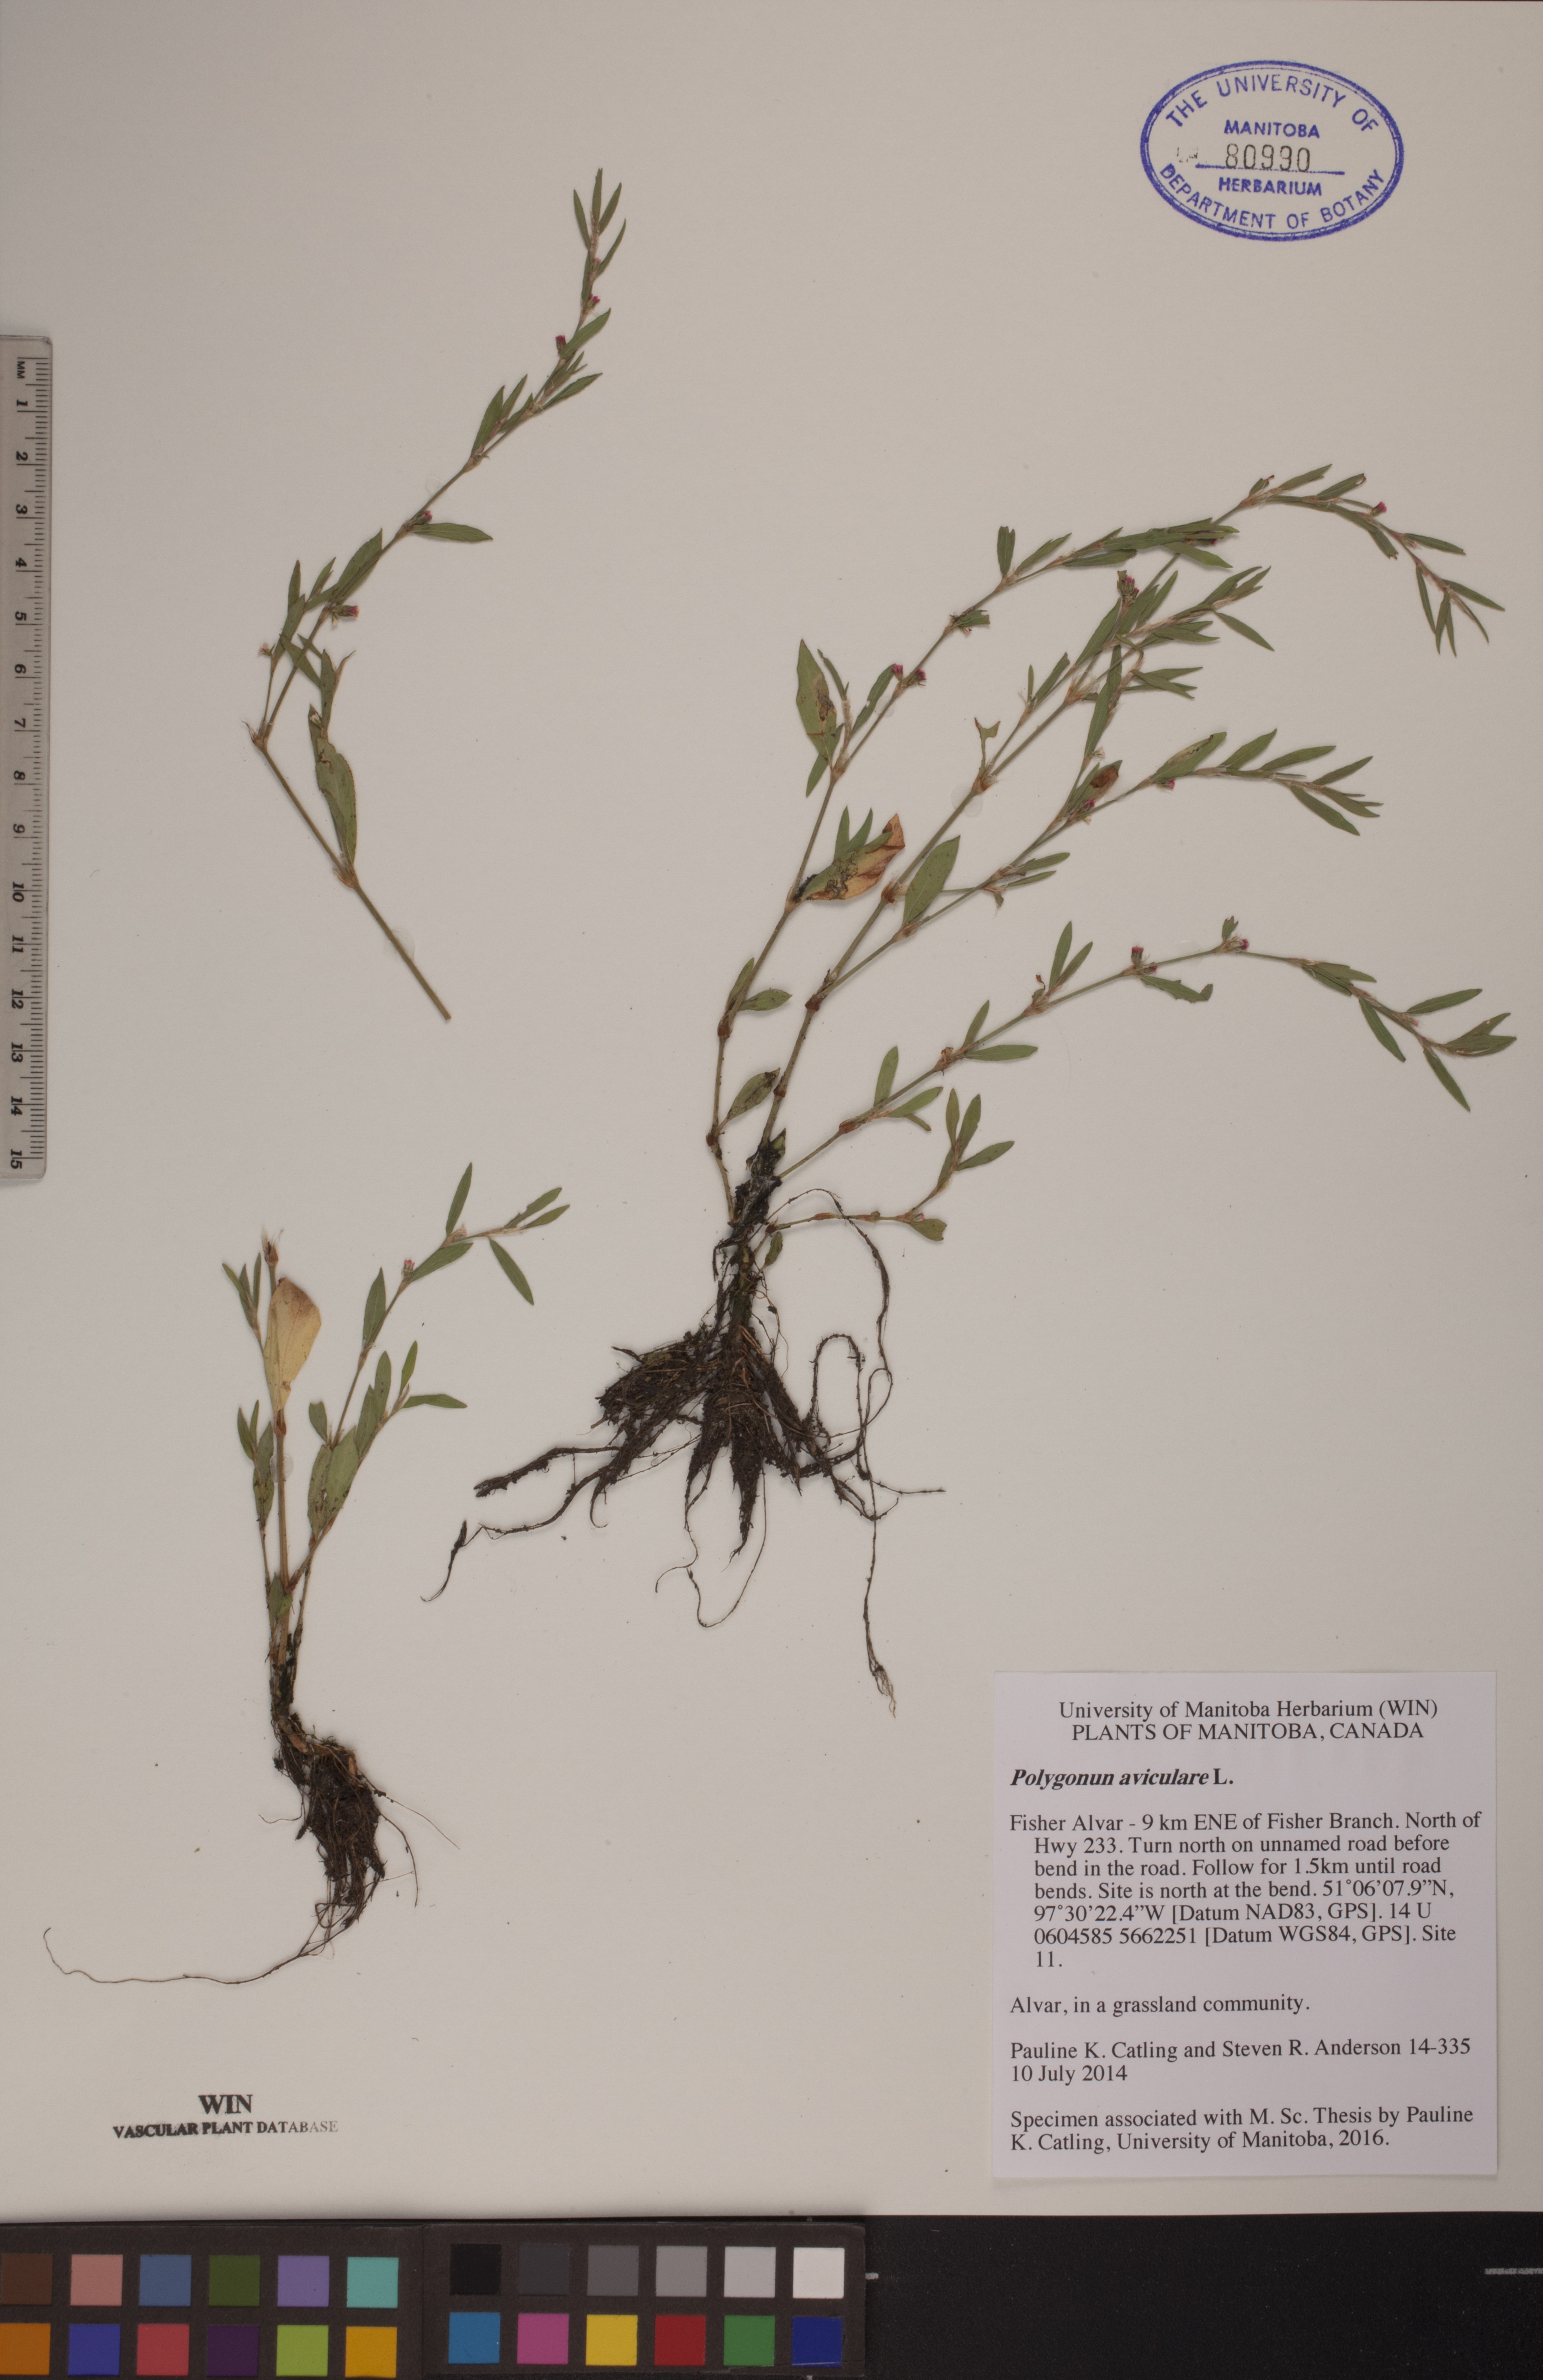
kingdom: Plantae
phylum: Tracheophyta
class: Magnoliopsida
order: Caryophyllales
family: Polygonaceae
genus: Polygonum
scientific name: Polygonum aviculare
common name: Prostrate knotweed
